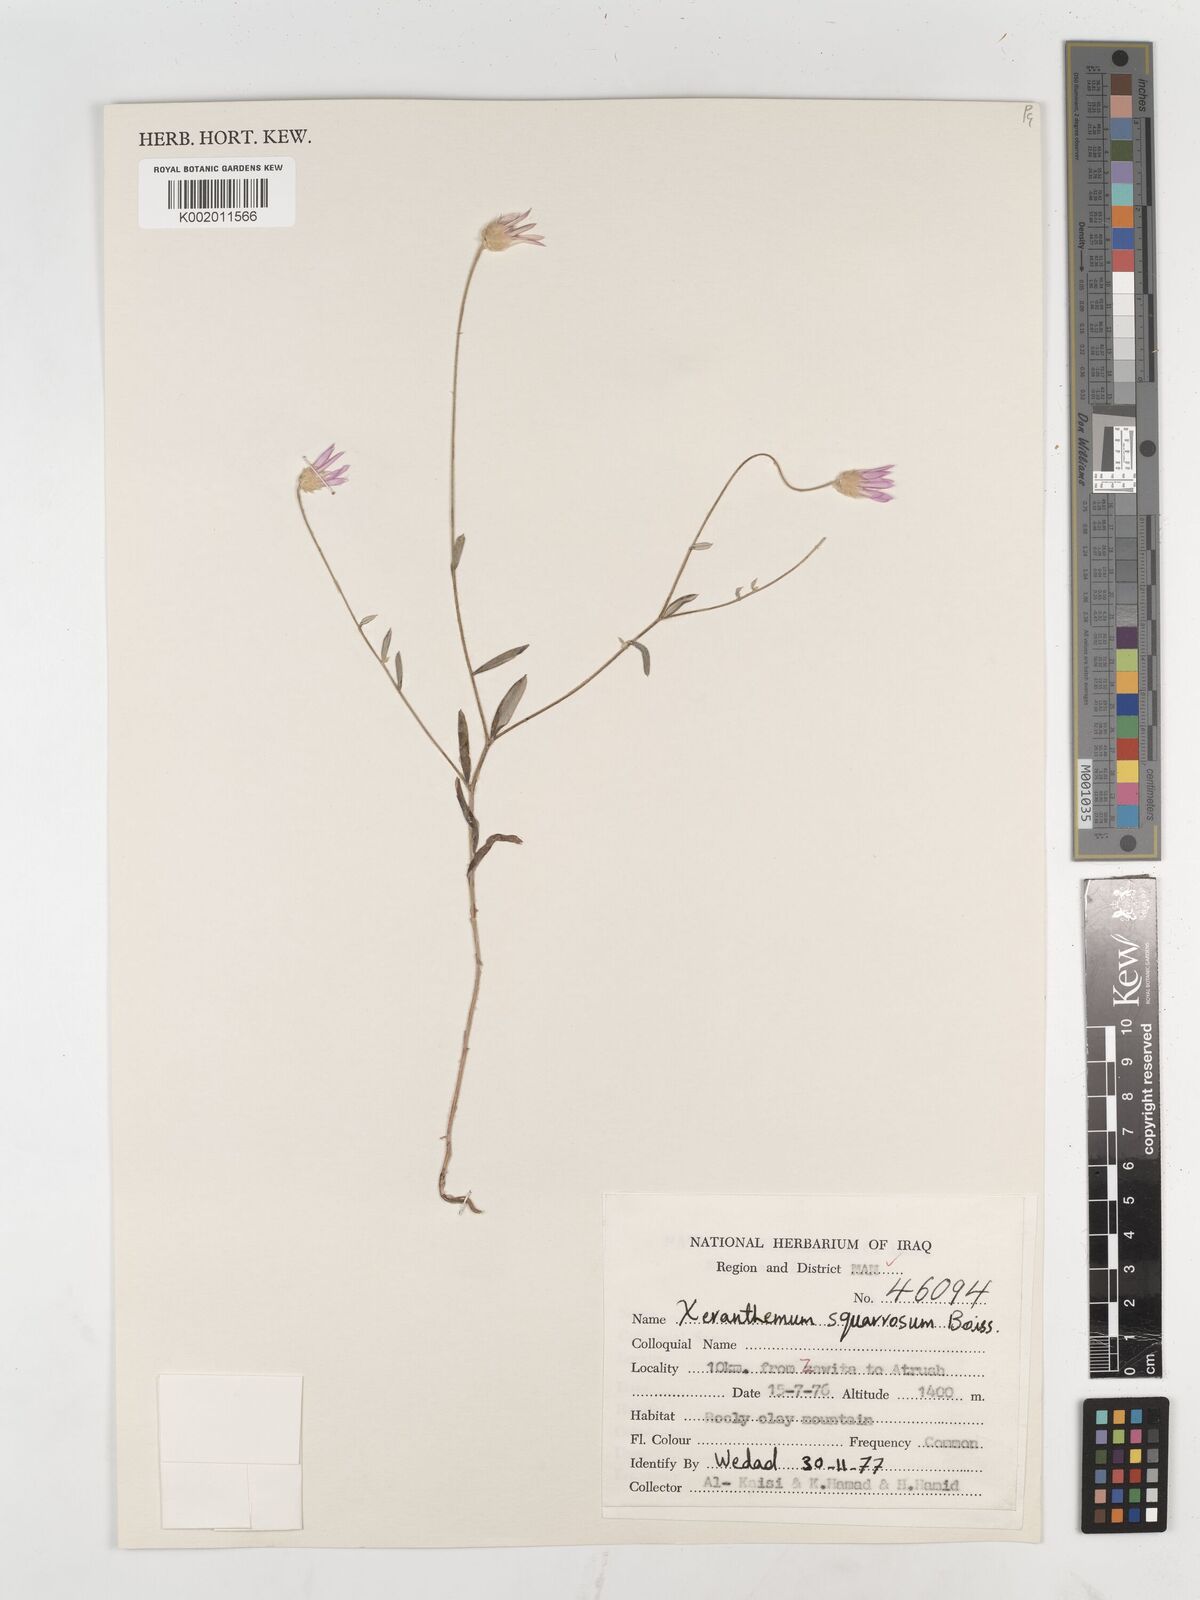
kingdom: Plantae
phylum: Tracheophyta
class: Magnoliopsida
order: Asterales
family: Asteraceae
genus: Xeranthemum
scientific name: Xeranthemum annuum
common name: Immortelle
